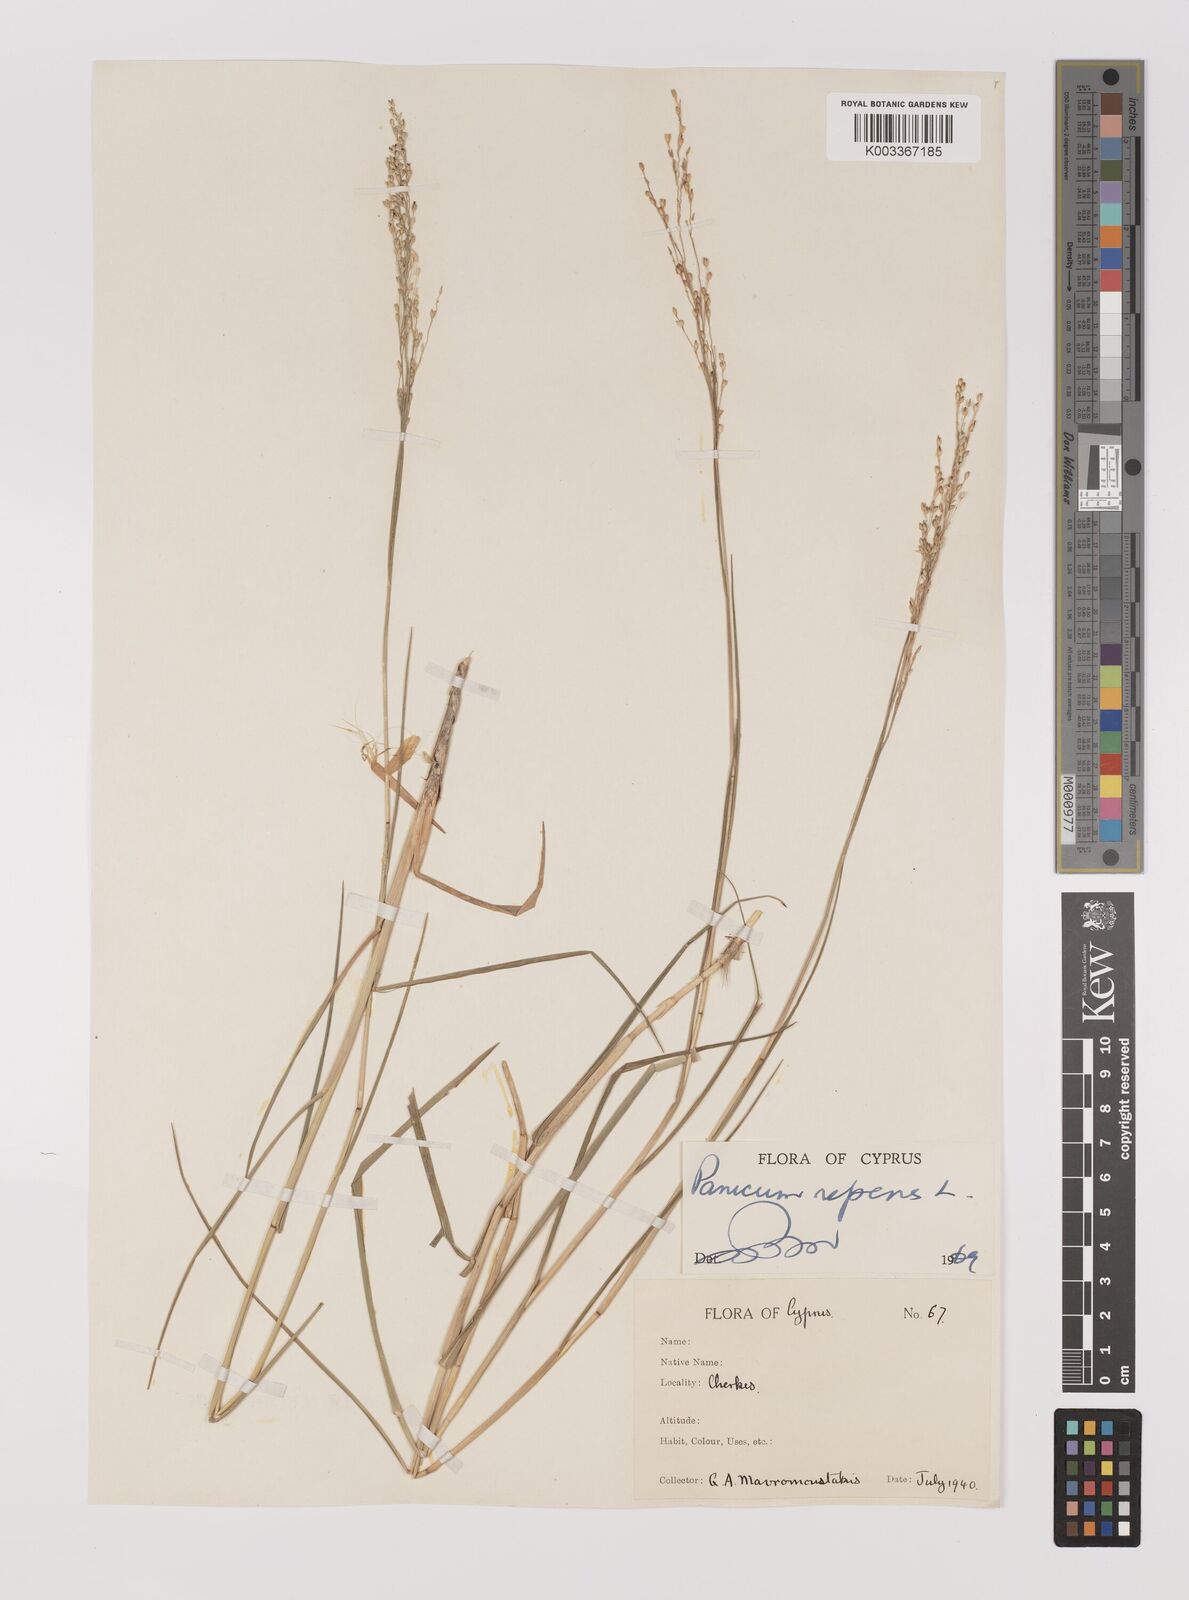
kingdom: Plantae
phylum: Tracheophyta
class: Liliopsida
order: Poales
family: Poaceae
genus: Panicum
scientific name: Panicum repens
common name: Torpedo grass
